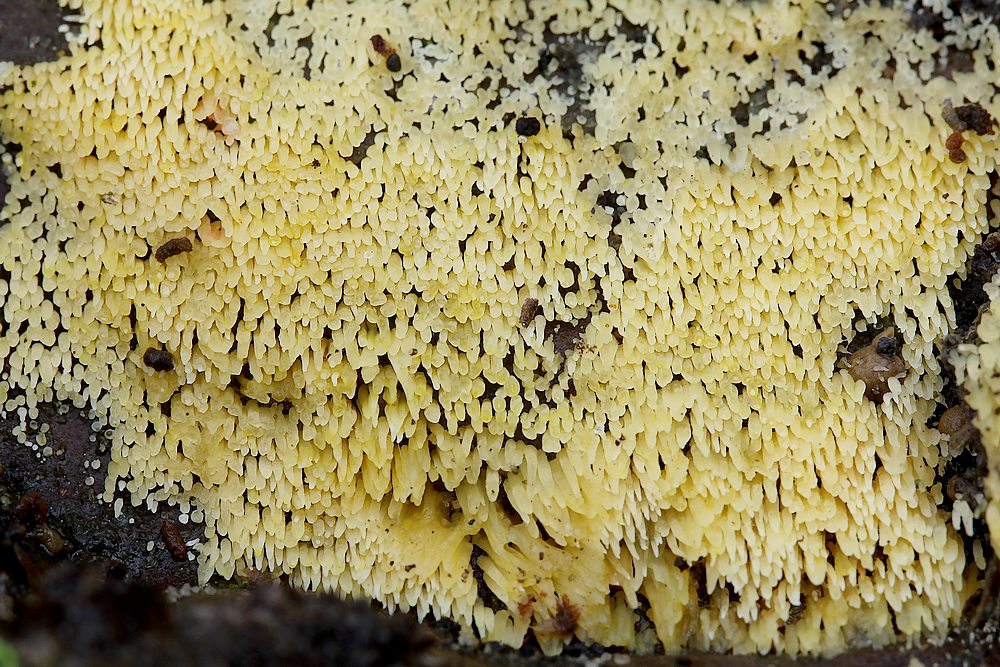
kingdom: Fungi
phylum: Basidiomycota
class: Agaricomycetes
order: Agaricales
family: Clavariaceae
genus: Mucronella
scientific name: Mucronella flava
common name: gul hængepig
